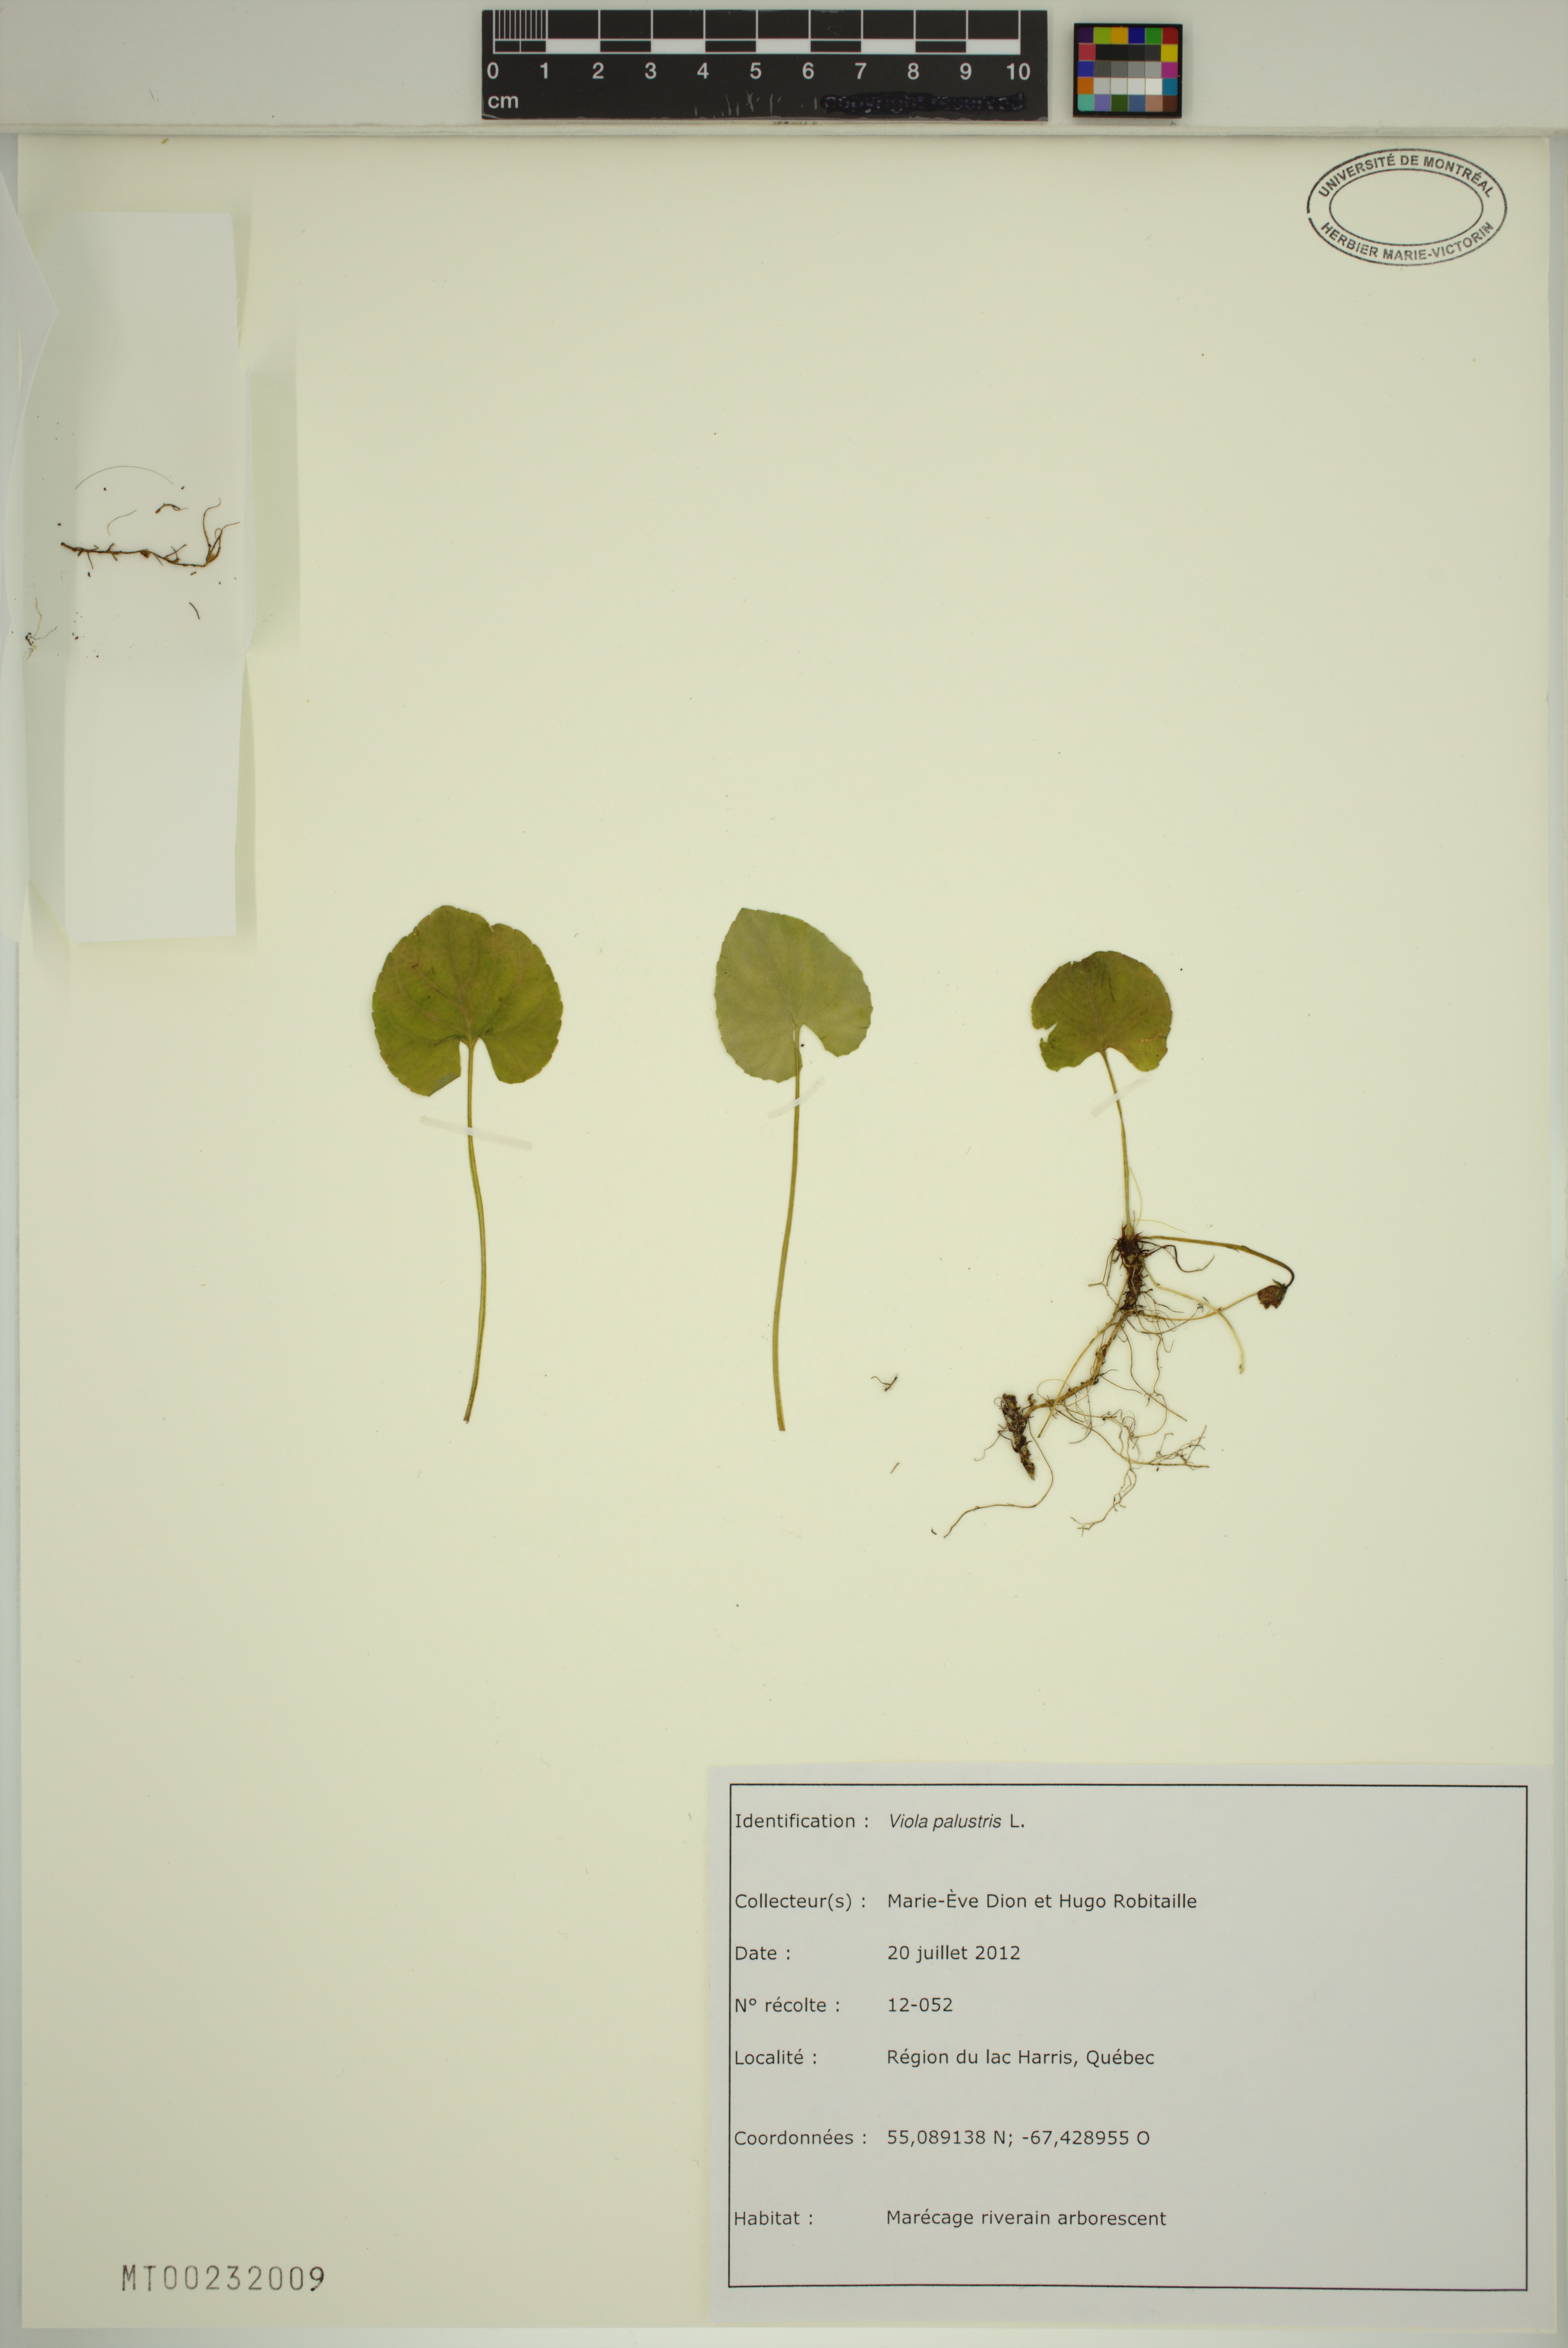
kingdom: Plantae
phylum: Tracheophyta
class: Magnoliopsida
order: Malpighiales
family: Violaceae
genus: Viola
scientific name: Viola palustris
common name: Marsh violet
